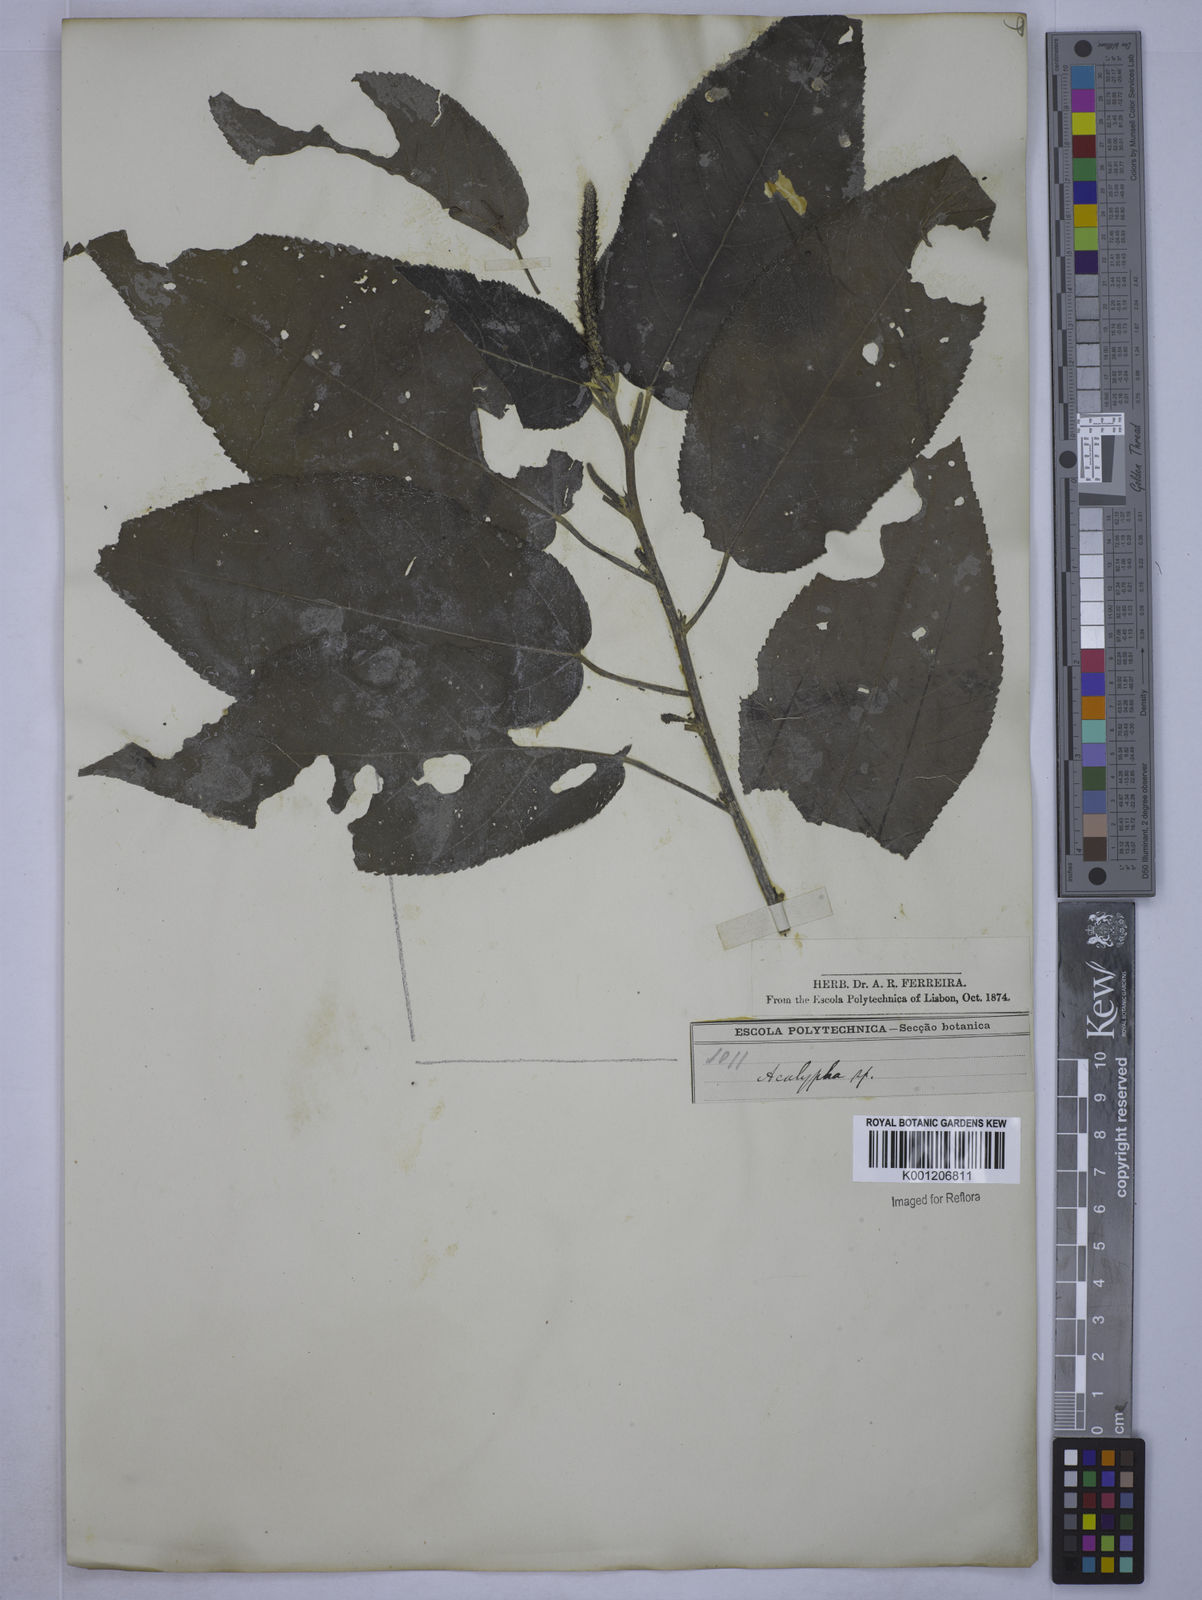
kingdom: Plantae
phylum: Tracheophyta
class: Magnoliopsida
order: Malpighiales
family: Euphorbiaceae
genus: Acalypha
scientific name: Acalypha
